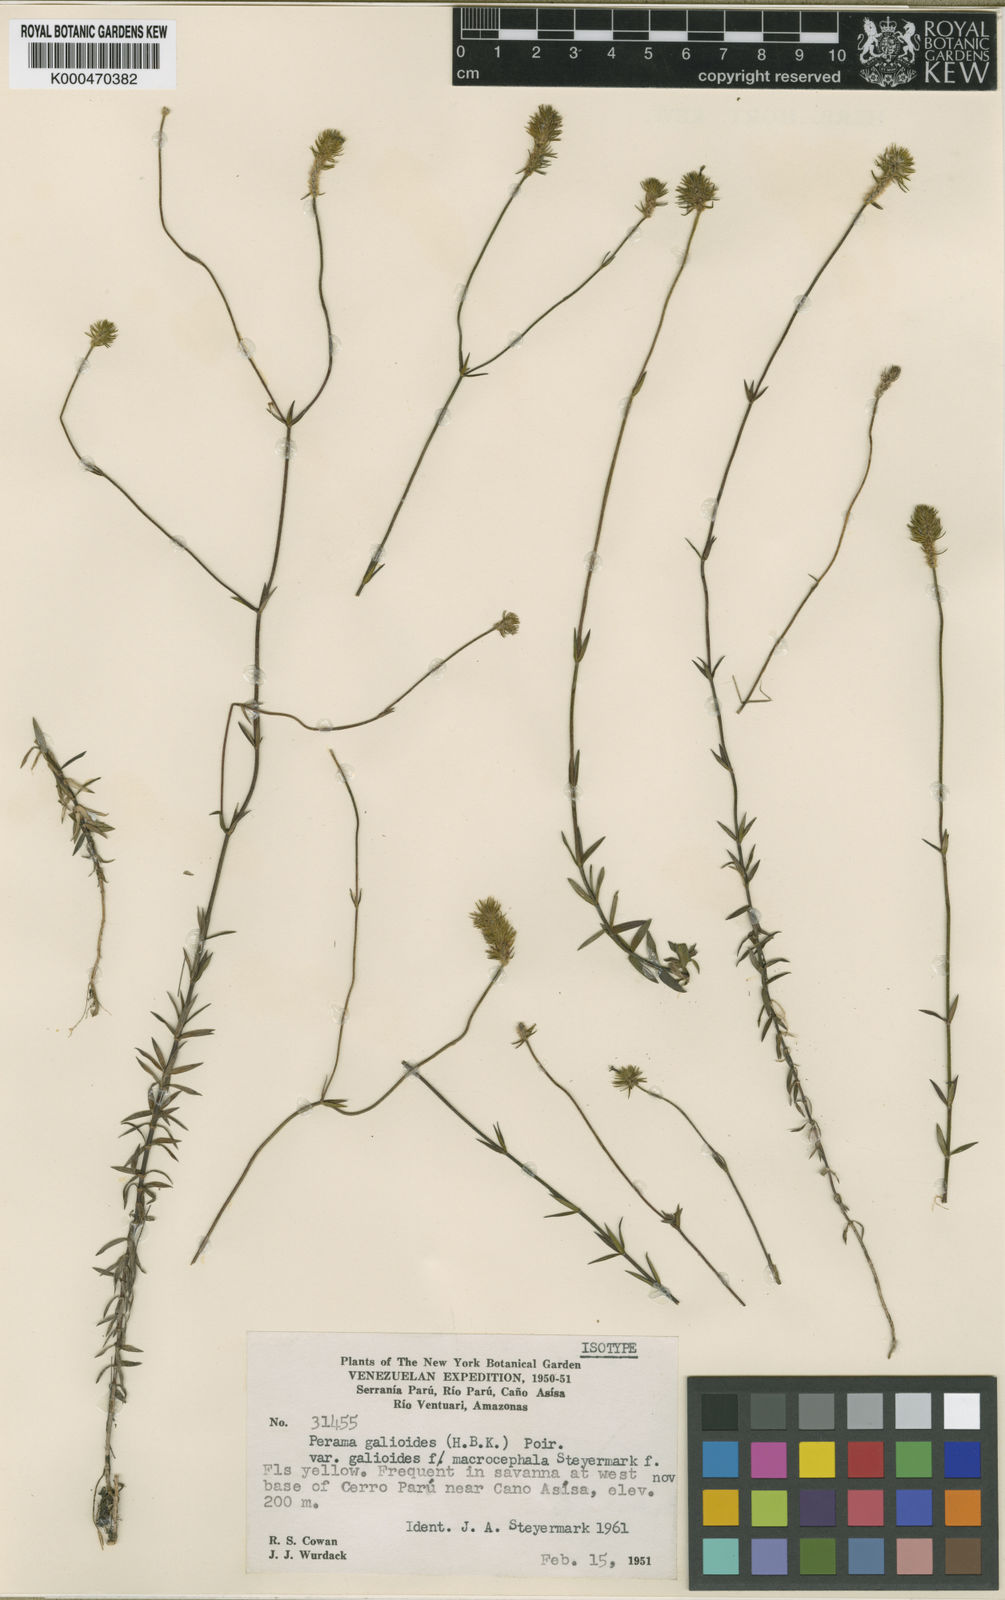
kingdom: Plantae
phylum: Tracheophyta
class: Magnoliopsida
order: Gentianales
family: Rubiaceae
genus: Perama
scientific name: Perama galioides
